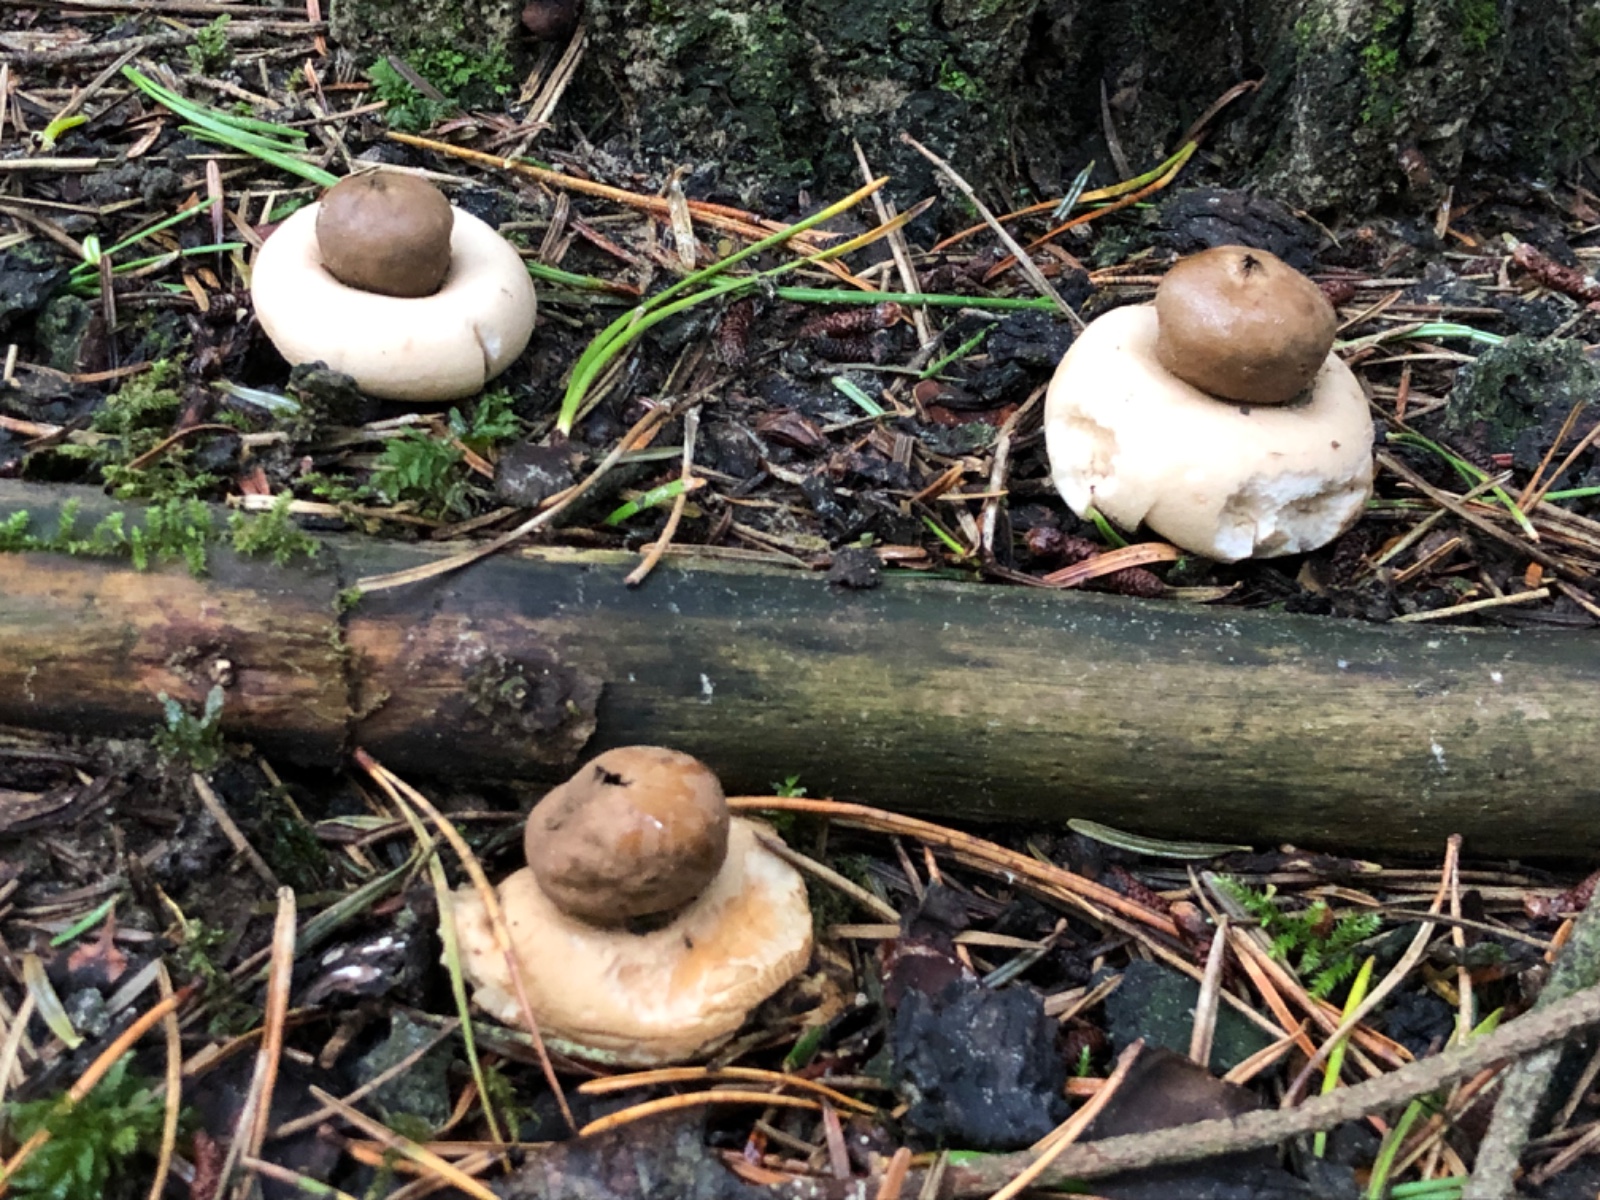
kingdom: Fungi
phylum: Basidiomycota
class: Agaricomycetes
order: Geastrales
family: Geastraceae
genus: Geastrum
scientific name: Geastrum fimbriatum
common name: frynset stjernebold
